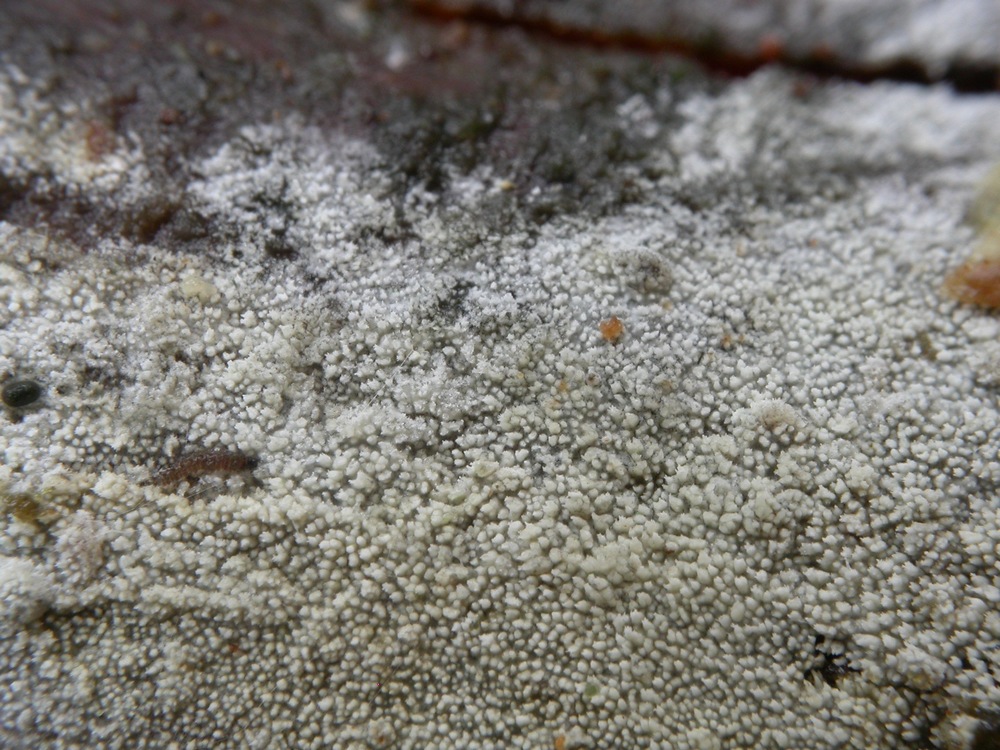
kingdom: Fungi
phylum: Basidiomycota
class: Agaricomycetes
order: Hymenochaetales
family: Schizoporaceae
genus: Xylodon
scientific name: Xylodon nesporii
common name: fintandet tandsvamp
